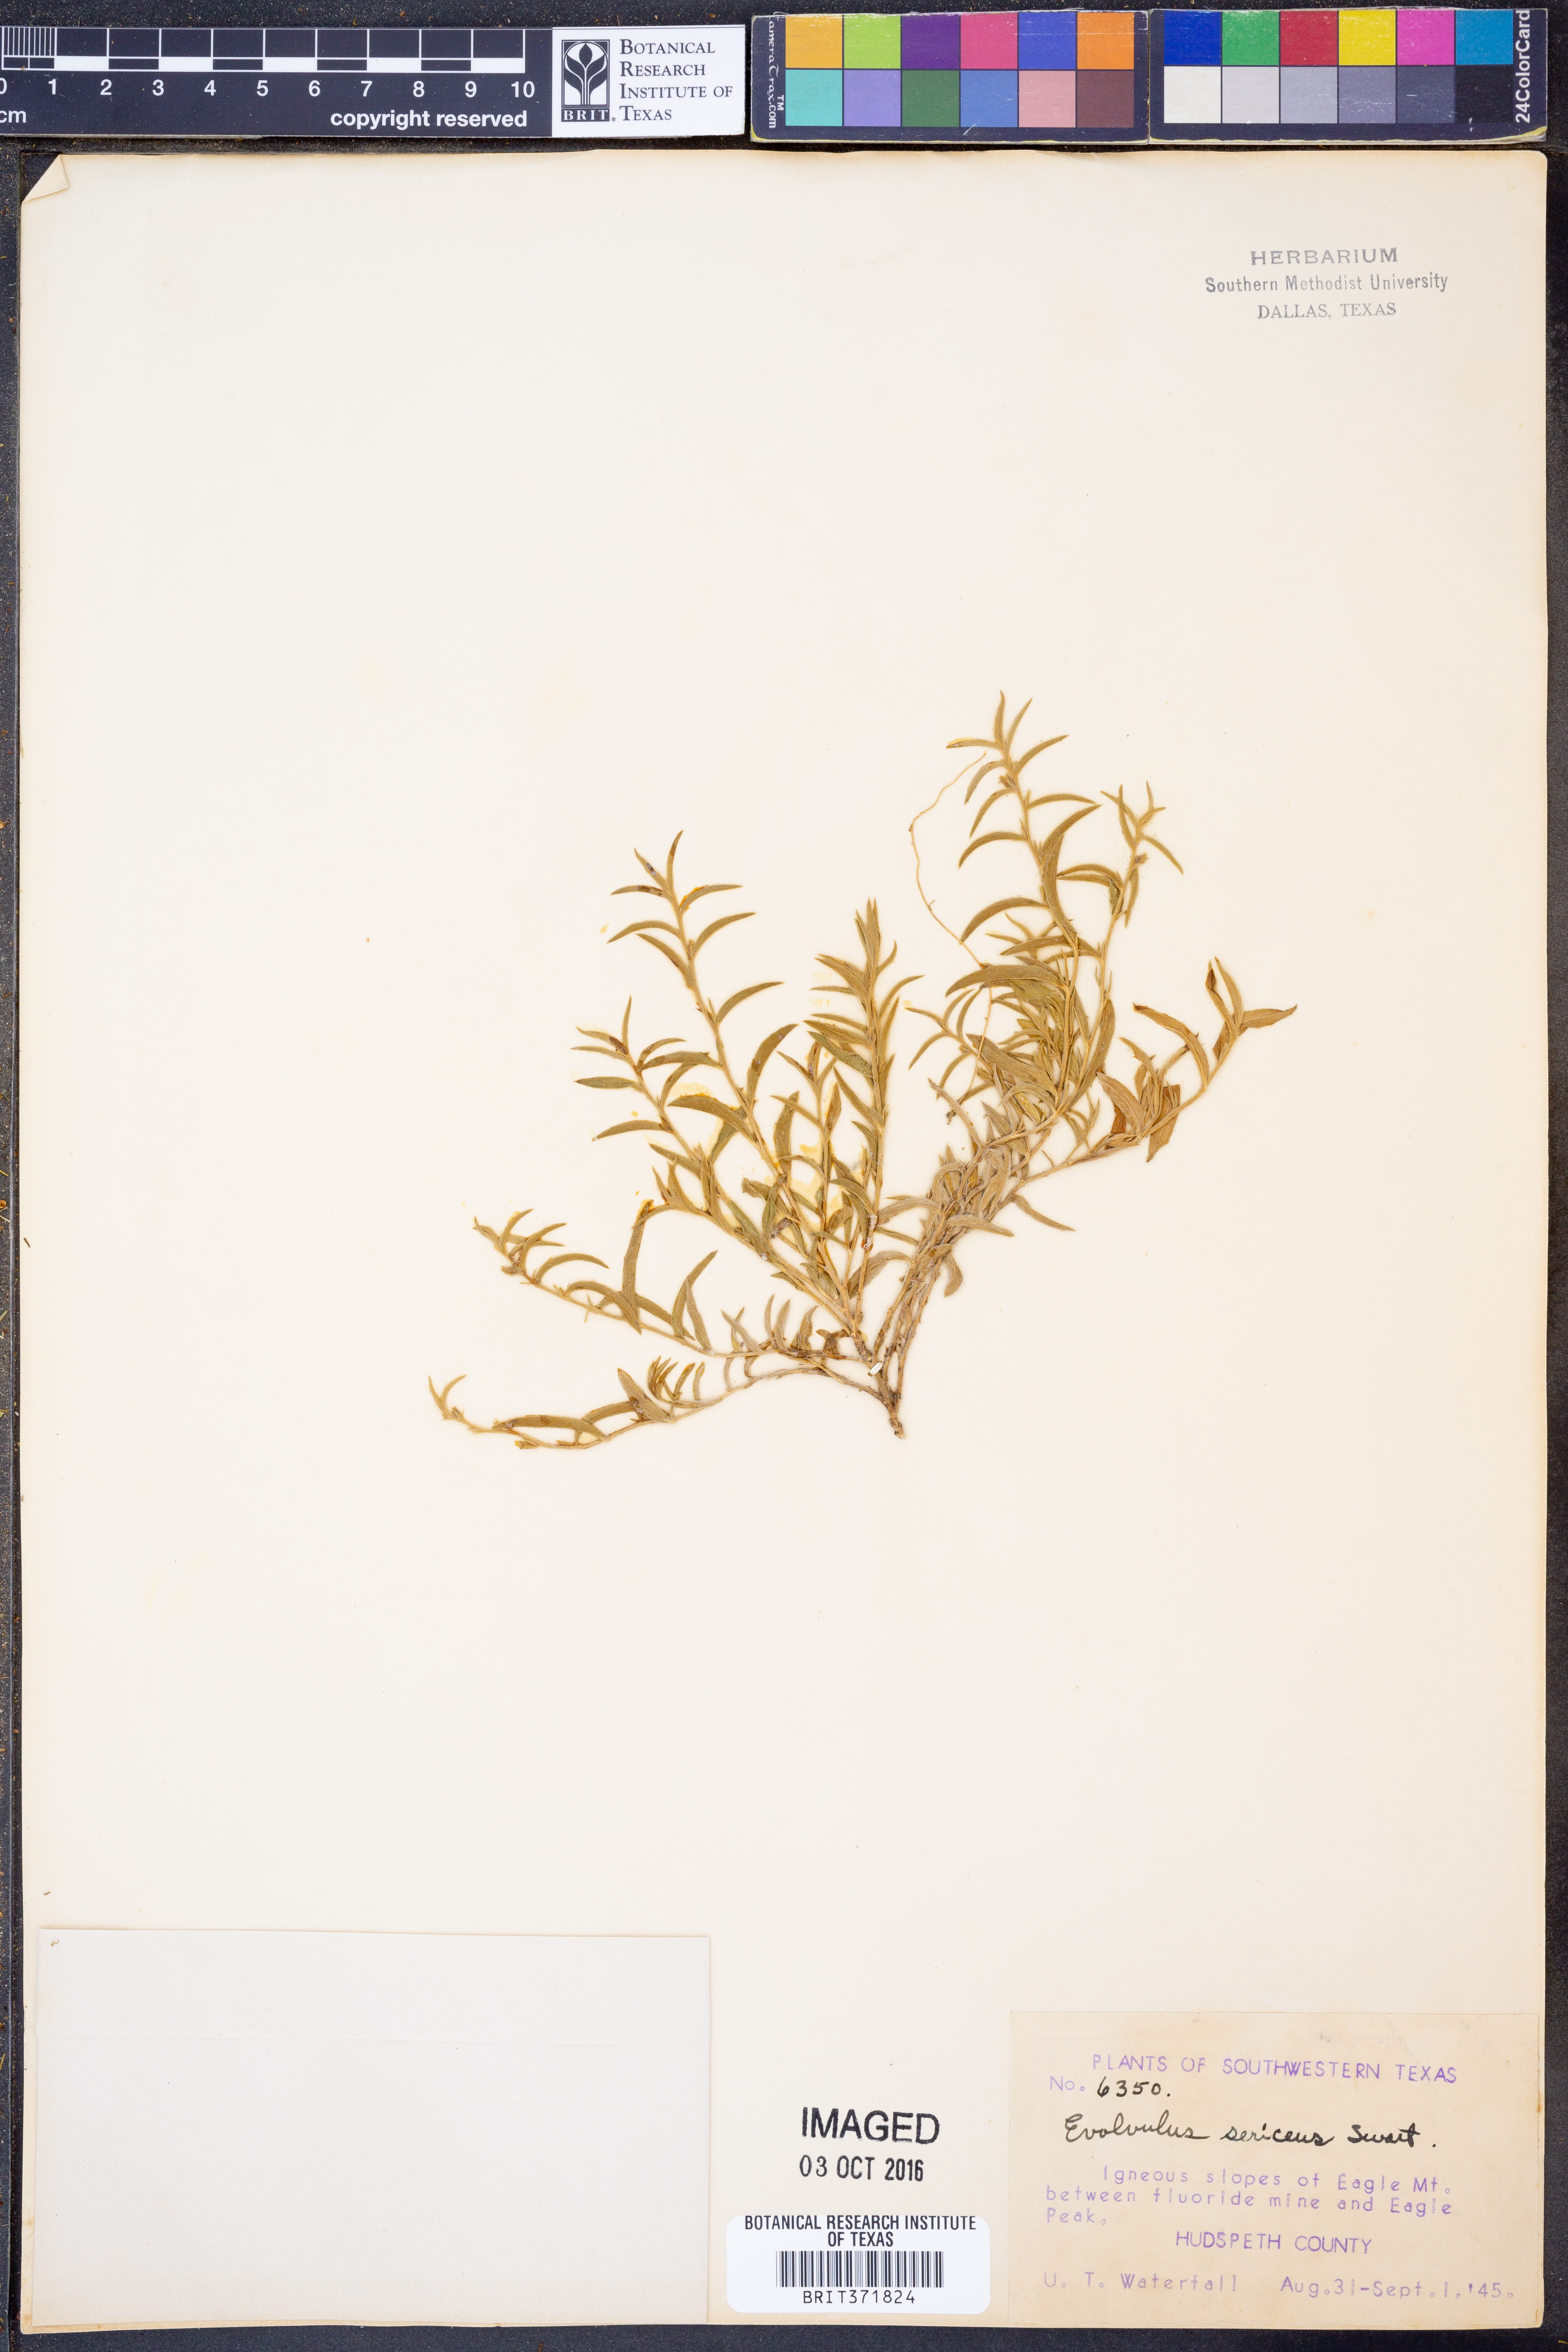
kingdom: Plantae
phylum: Tracheophyta
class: Magnoliopsida
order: Solanales
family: Convolvulaceae
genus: Evolvulus
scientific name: Evolvulus sericeus
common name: Blue dots
